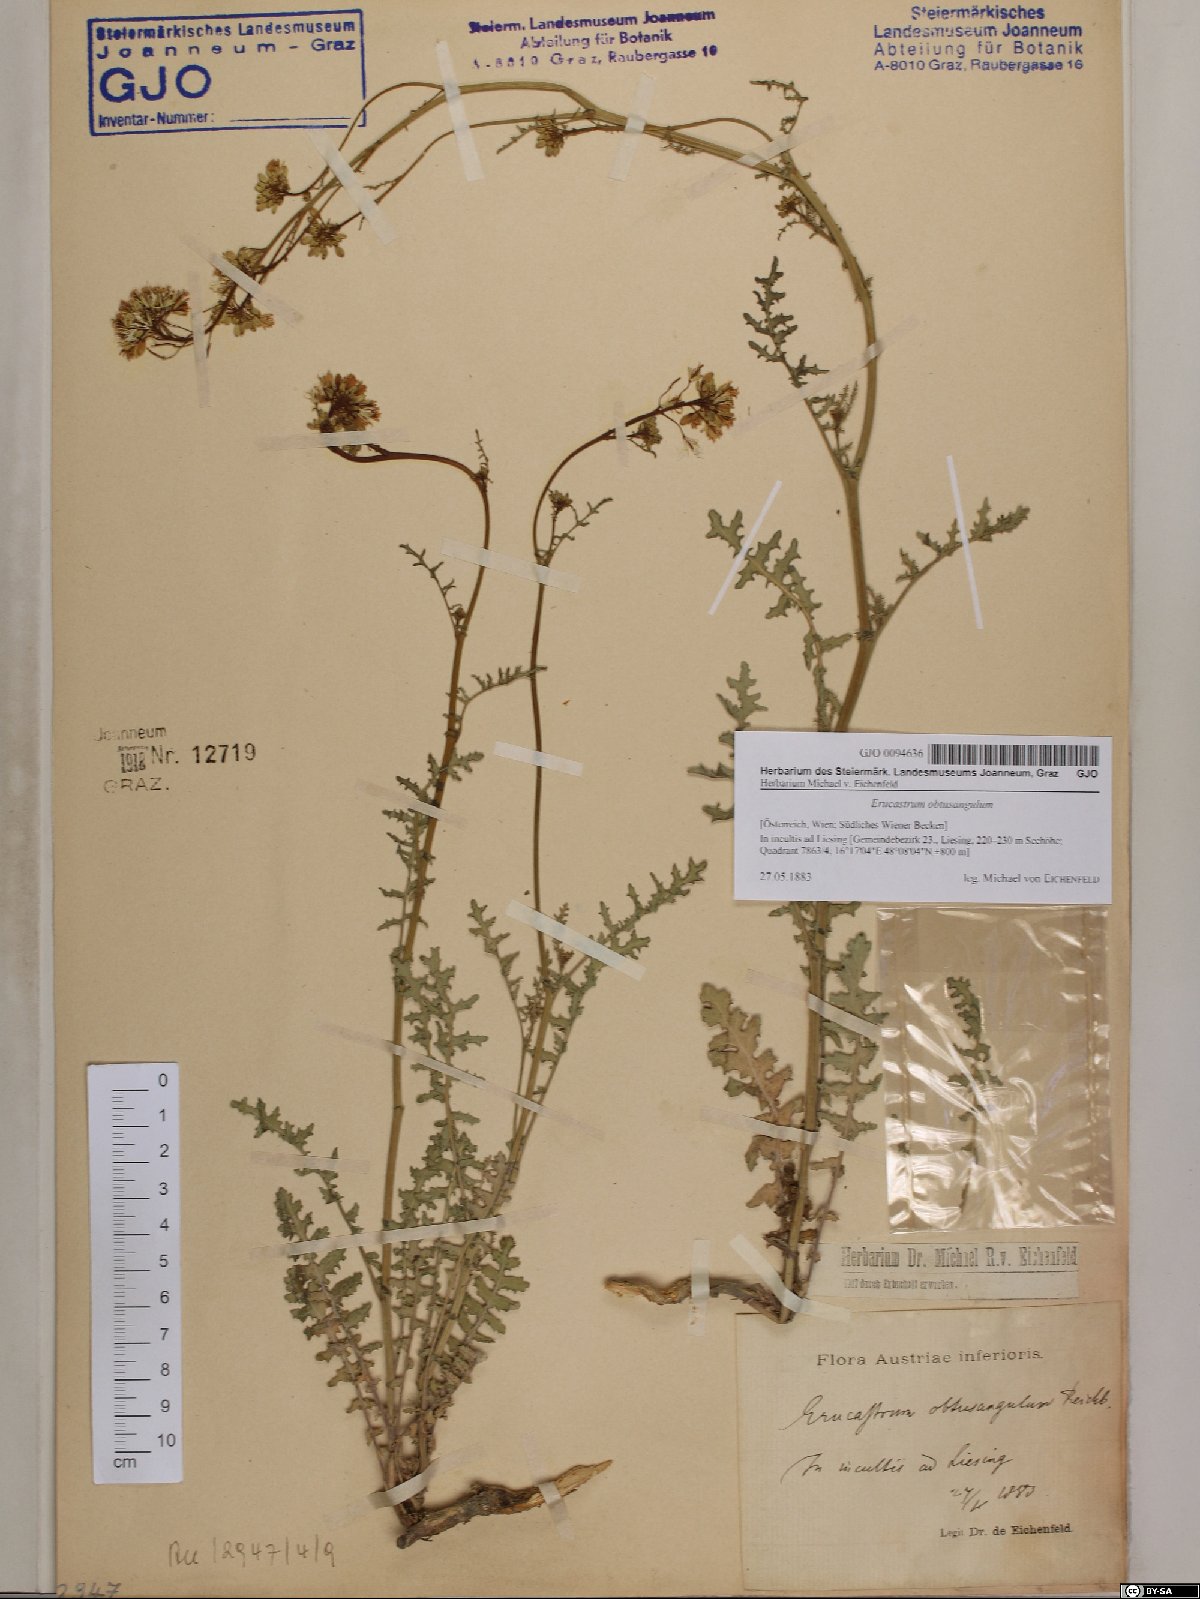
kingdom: Plantae
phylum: Tracheophyta
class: Magnoliopsida
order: Brassicales
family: Brassicaceae
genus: Erucastrum
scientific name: Erucastrum nasturtiifolium
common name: Watercress-leaf rocket
